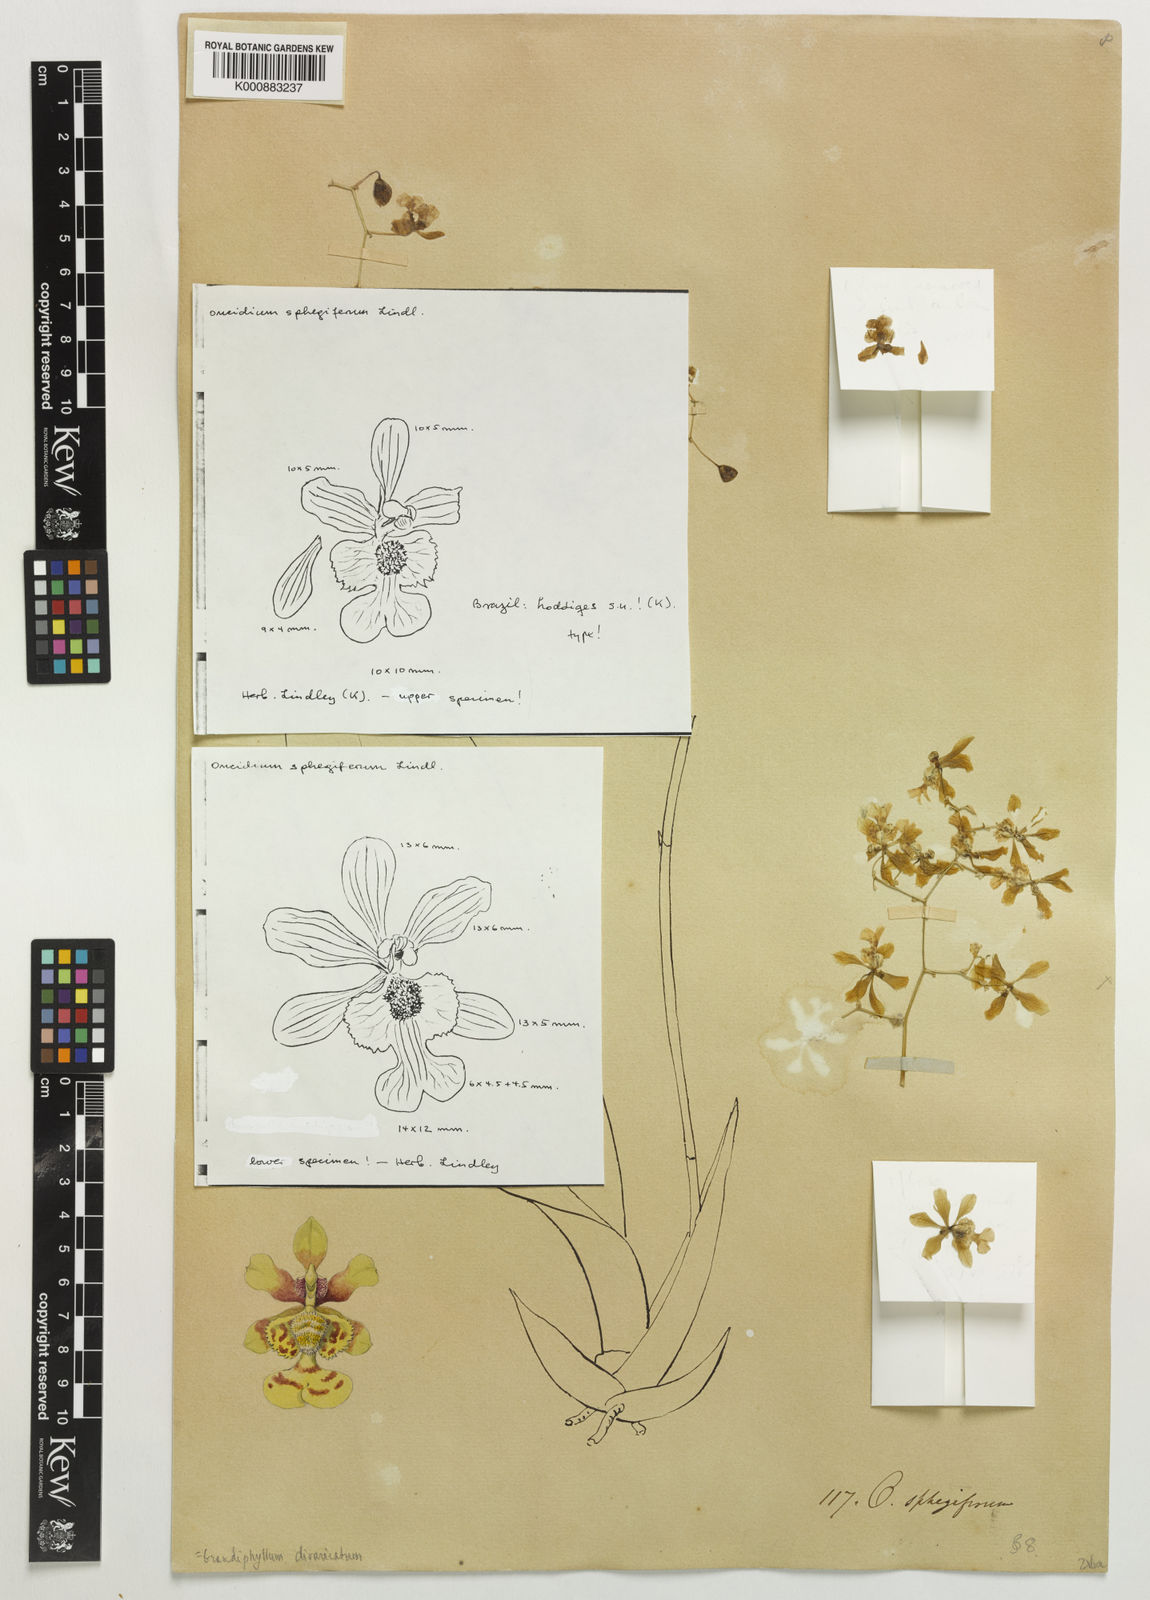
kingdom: Plantae
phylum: Tracheophyta
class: Liliopsida
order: Asparagales
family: Orchidaceae
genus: Grandiphyllum
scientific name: Grandiphyllum divaricatum
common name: Mule-ear orchid
